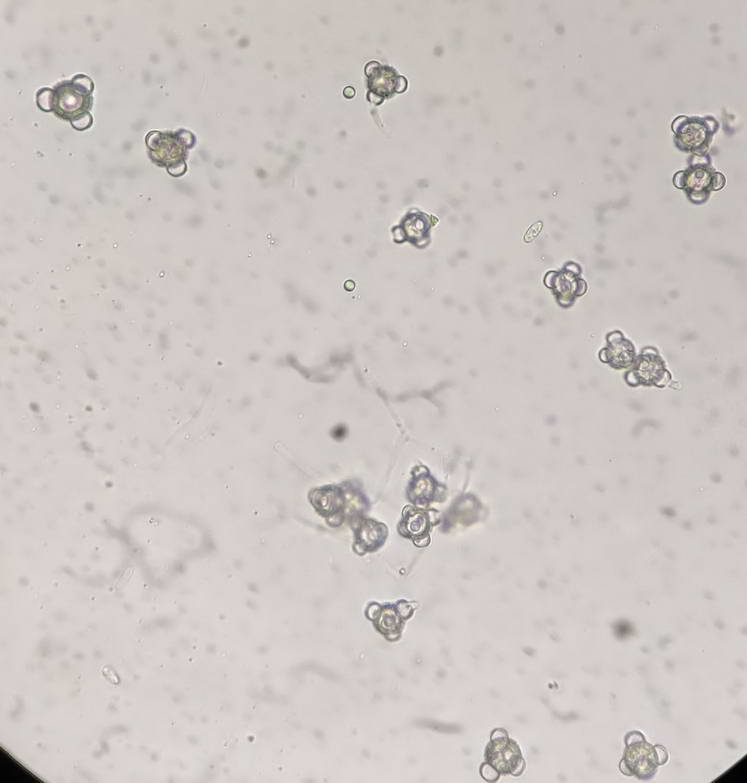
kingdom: Fungi
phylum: Ascomycota
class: Sordariomycetes
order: Hypocreales
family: Hypocreaceae
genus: Stephanoma
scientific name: Stephanoma tetracoccum
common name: øresporet snylteskorpe
